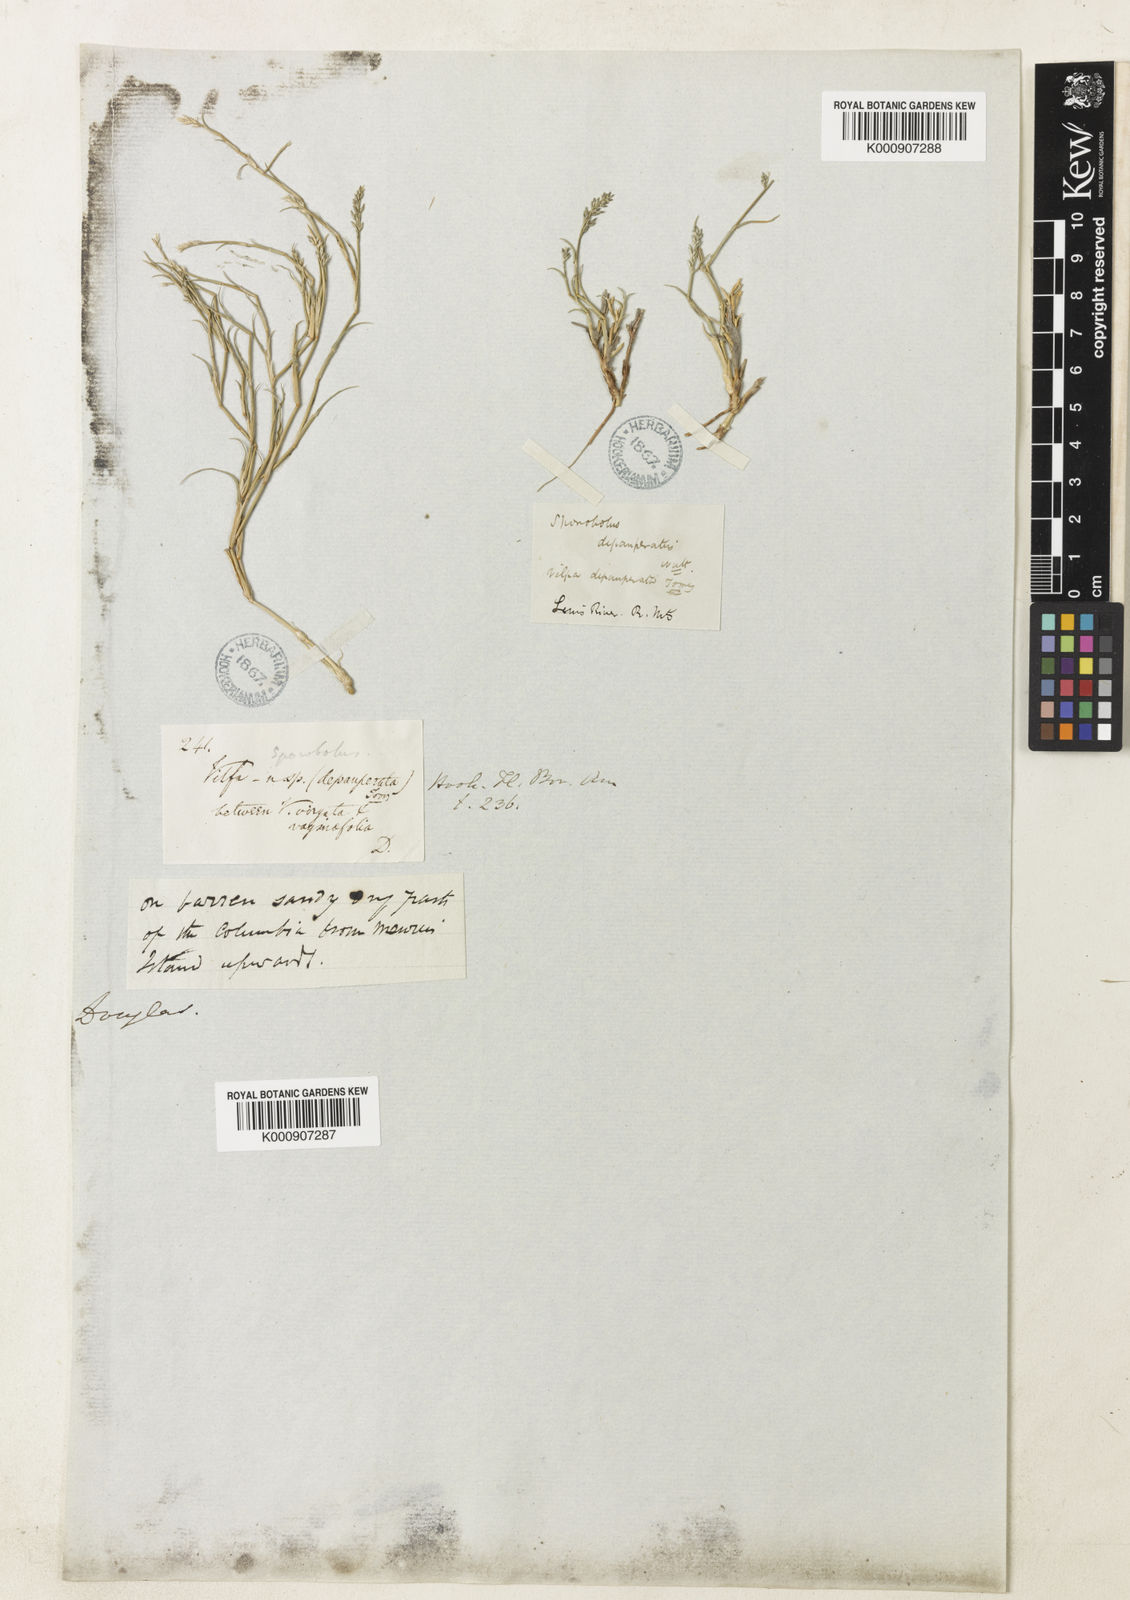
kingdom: Plantae
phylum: Tracheophyta
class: Liliopsida
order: Poales
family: Poaceae
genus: Muhlenbergia
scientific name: Muhlenbergia richardsonis
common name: Mat muhly
